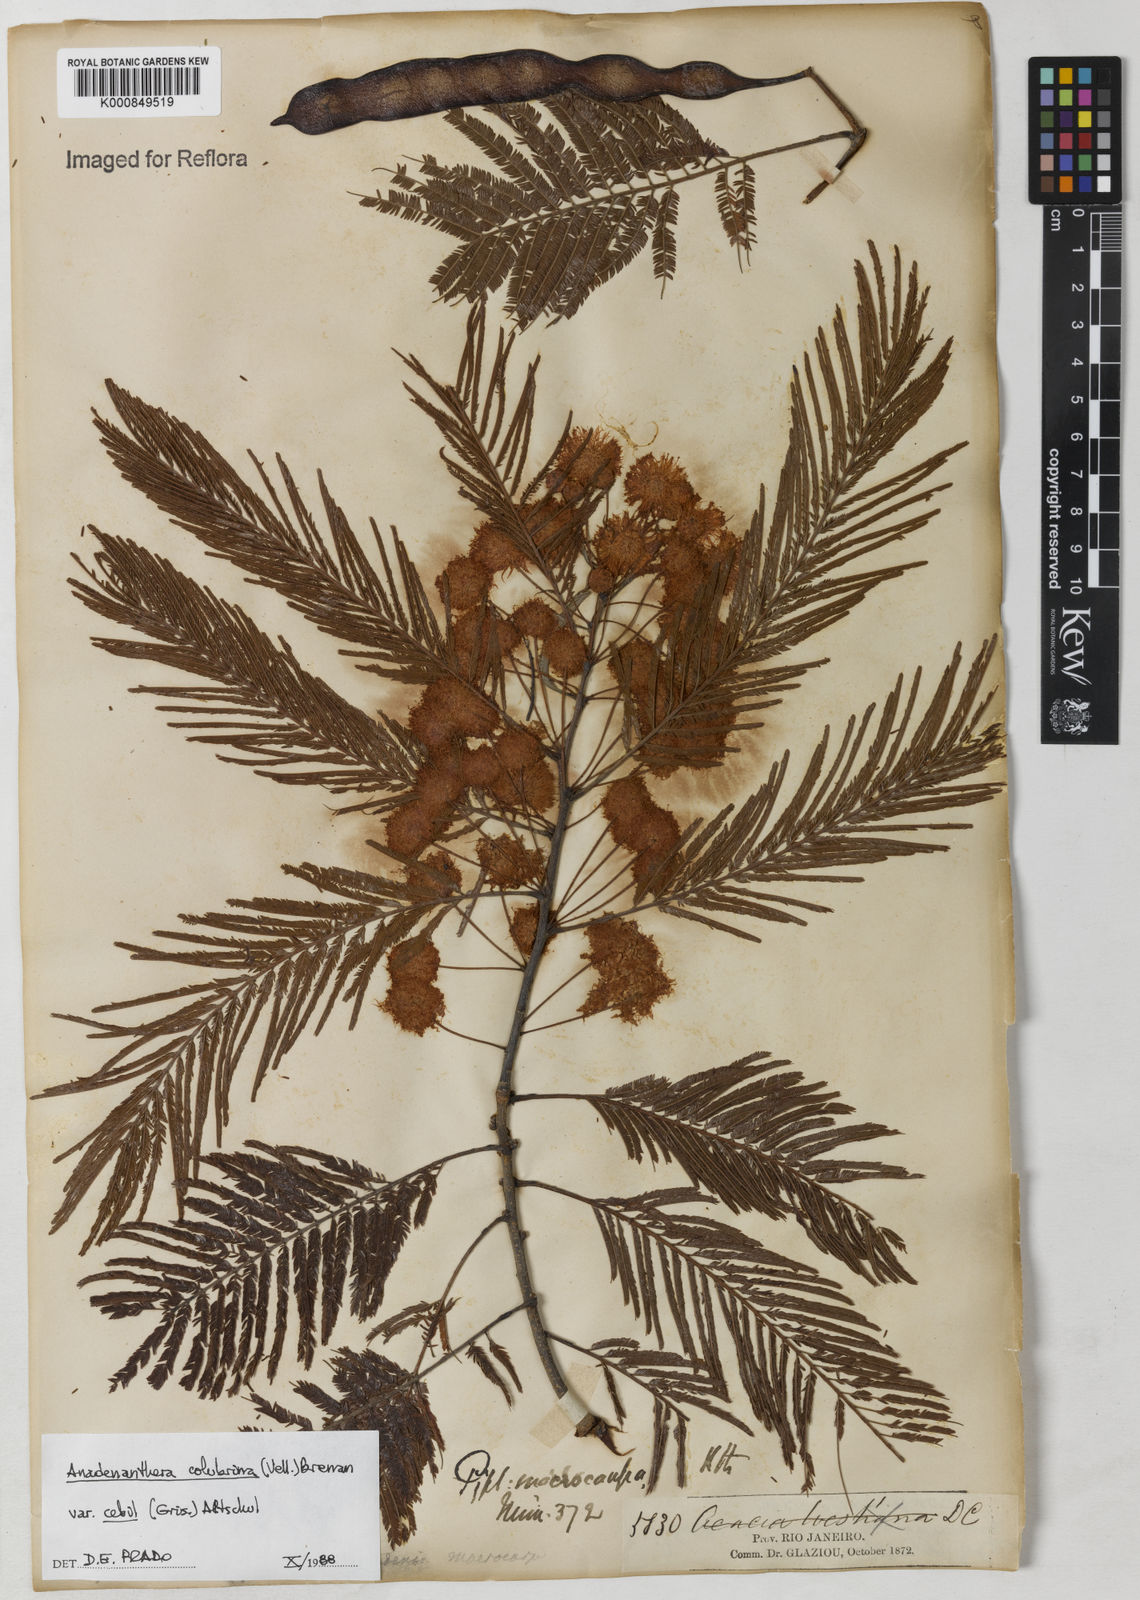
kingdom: Plantae
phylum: Tracheophyta
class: Magnoliopsida
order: Fabales
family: Fabaceae
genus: Anadenanthera
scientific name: Anadenanthera colubrina
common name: Curupay
